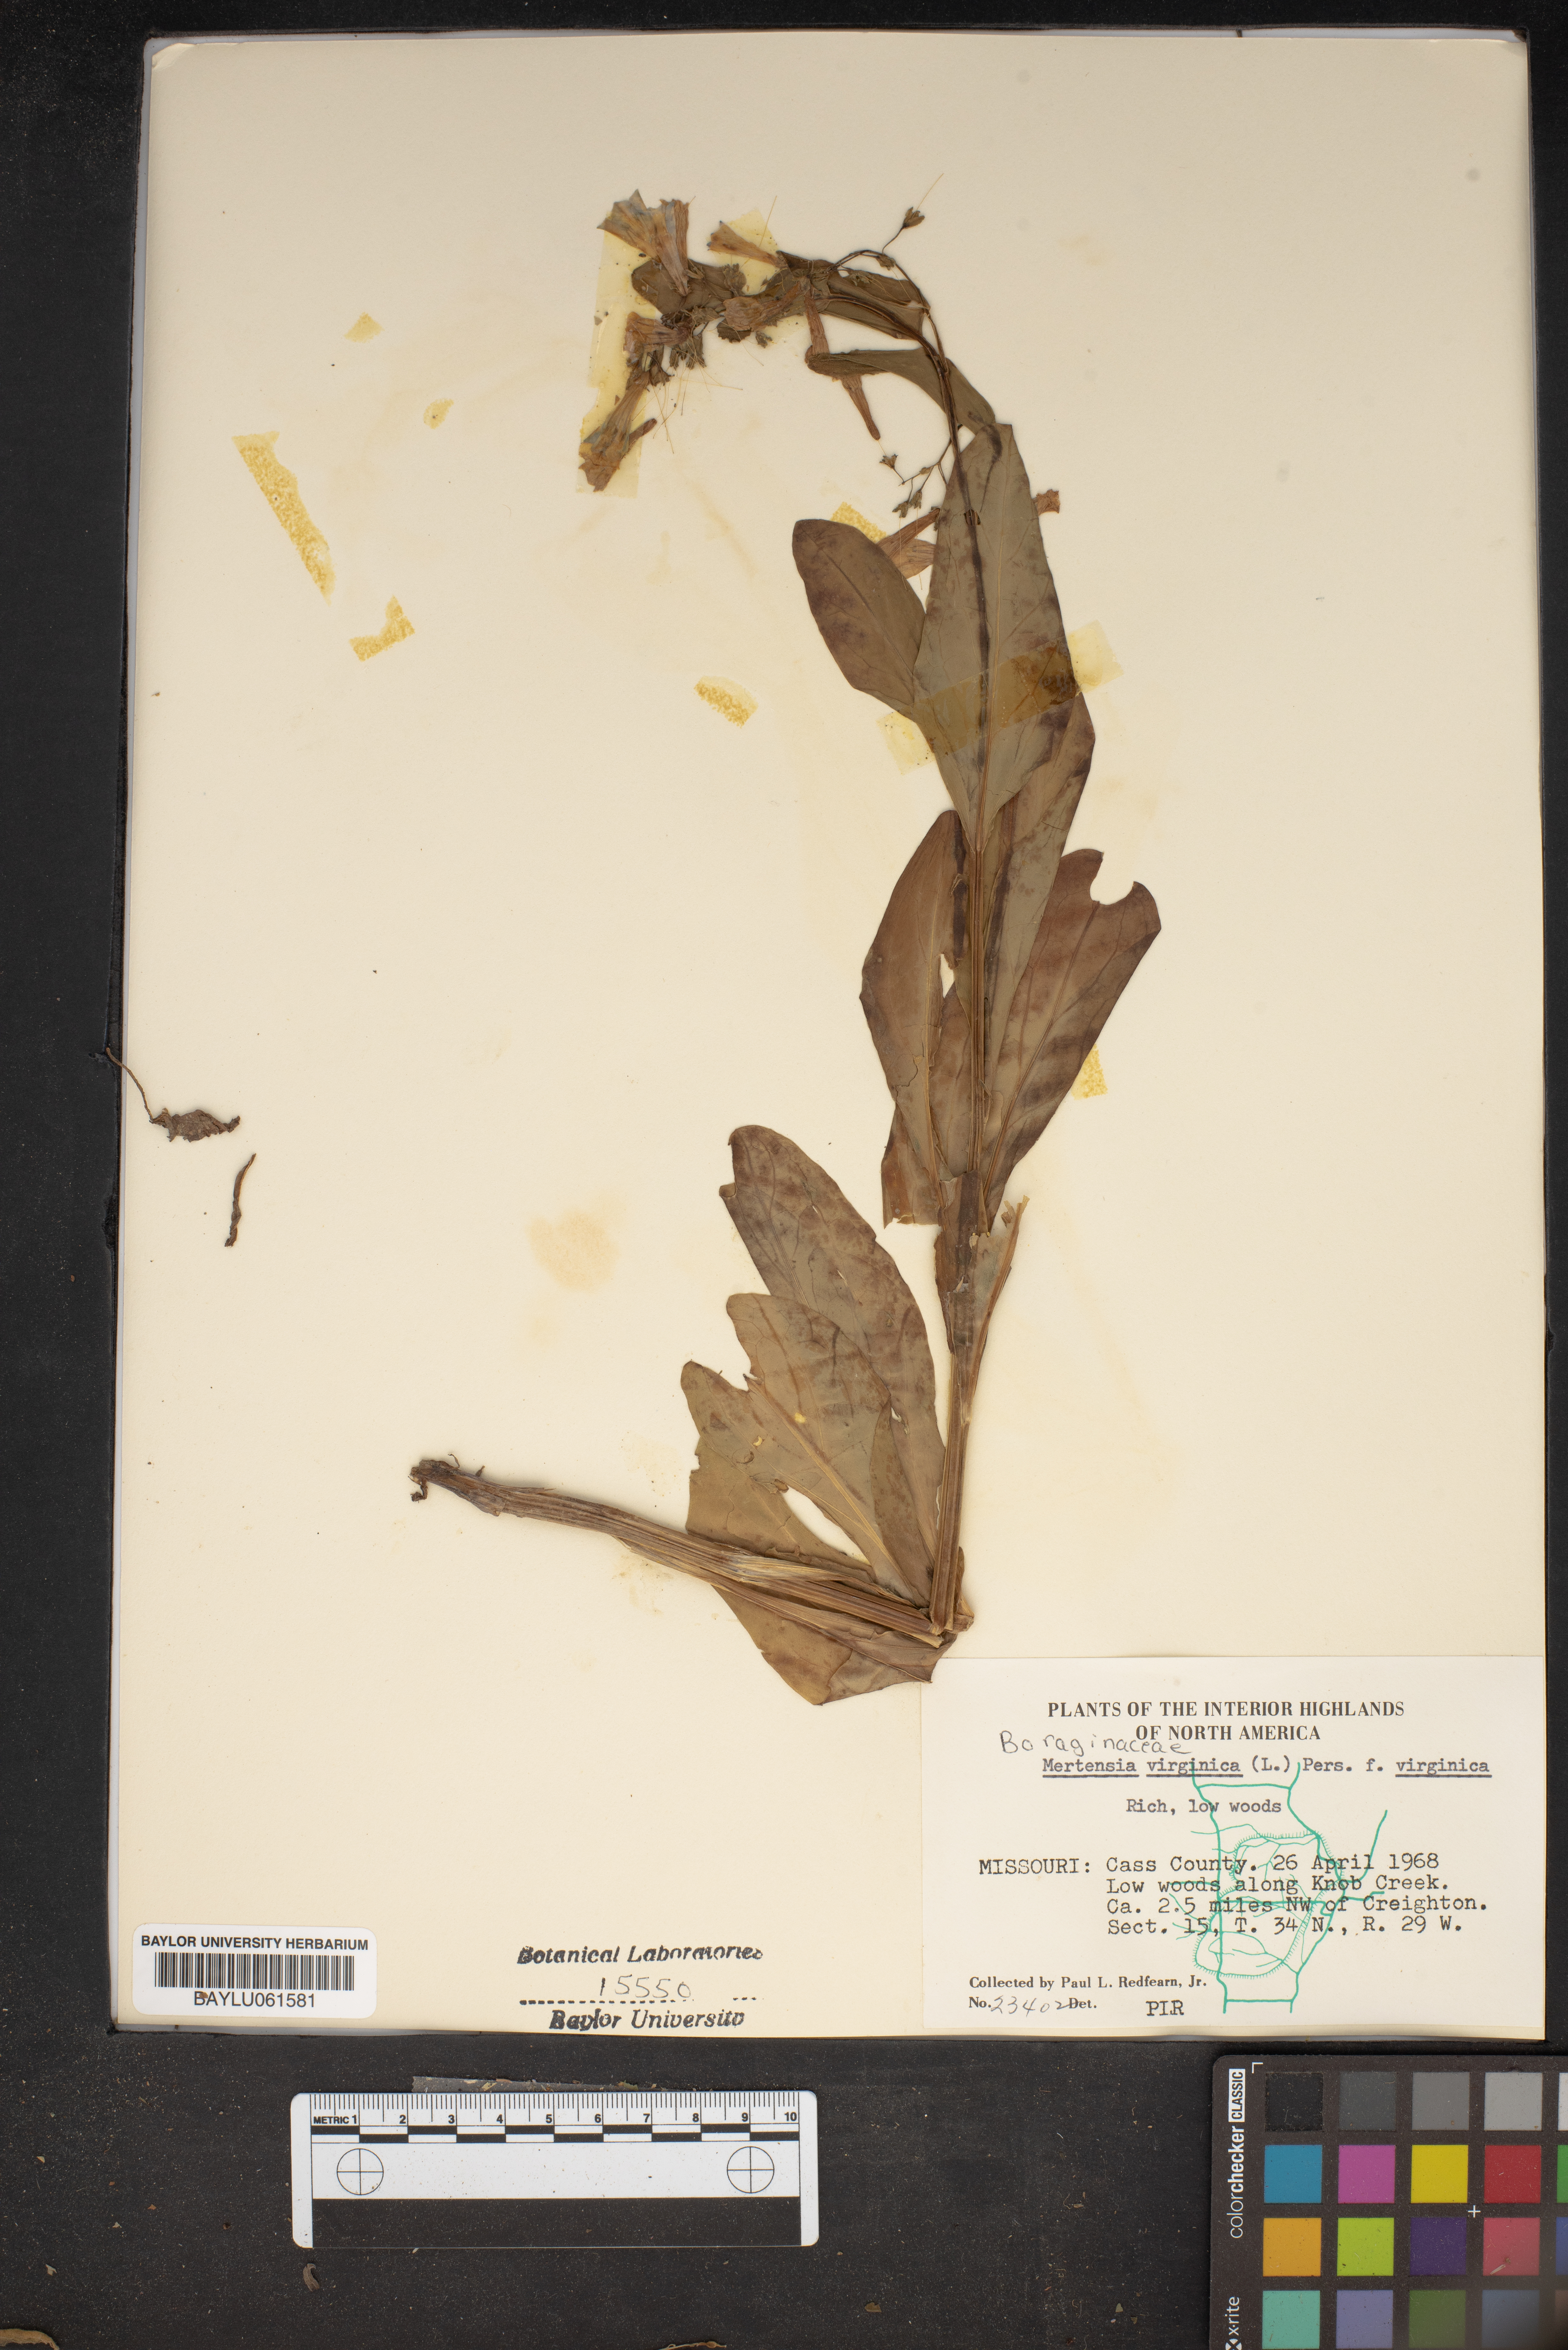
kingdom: Plantae
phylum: Tracheophyta
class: Magnoliopsida
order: Boraginales
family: Boraginaceae
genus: Mertensia
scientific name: Mertensia virginica
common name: Virginia bluebells
